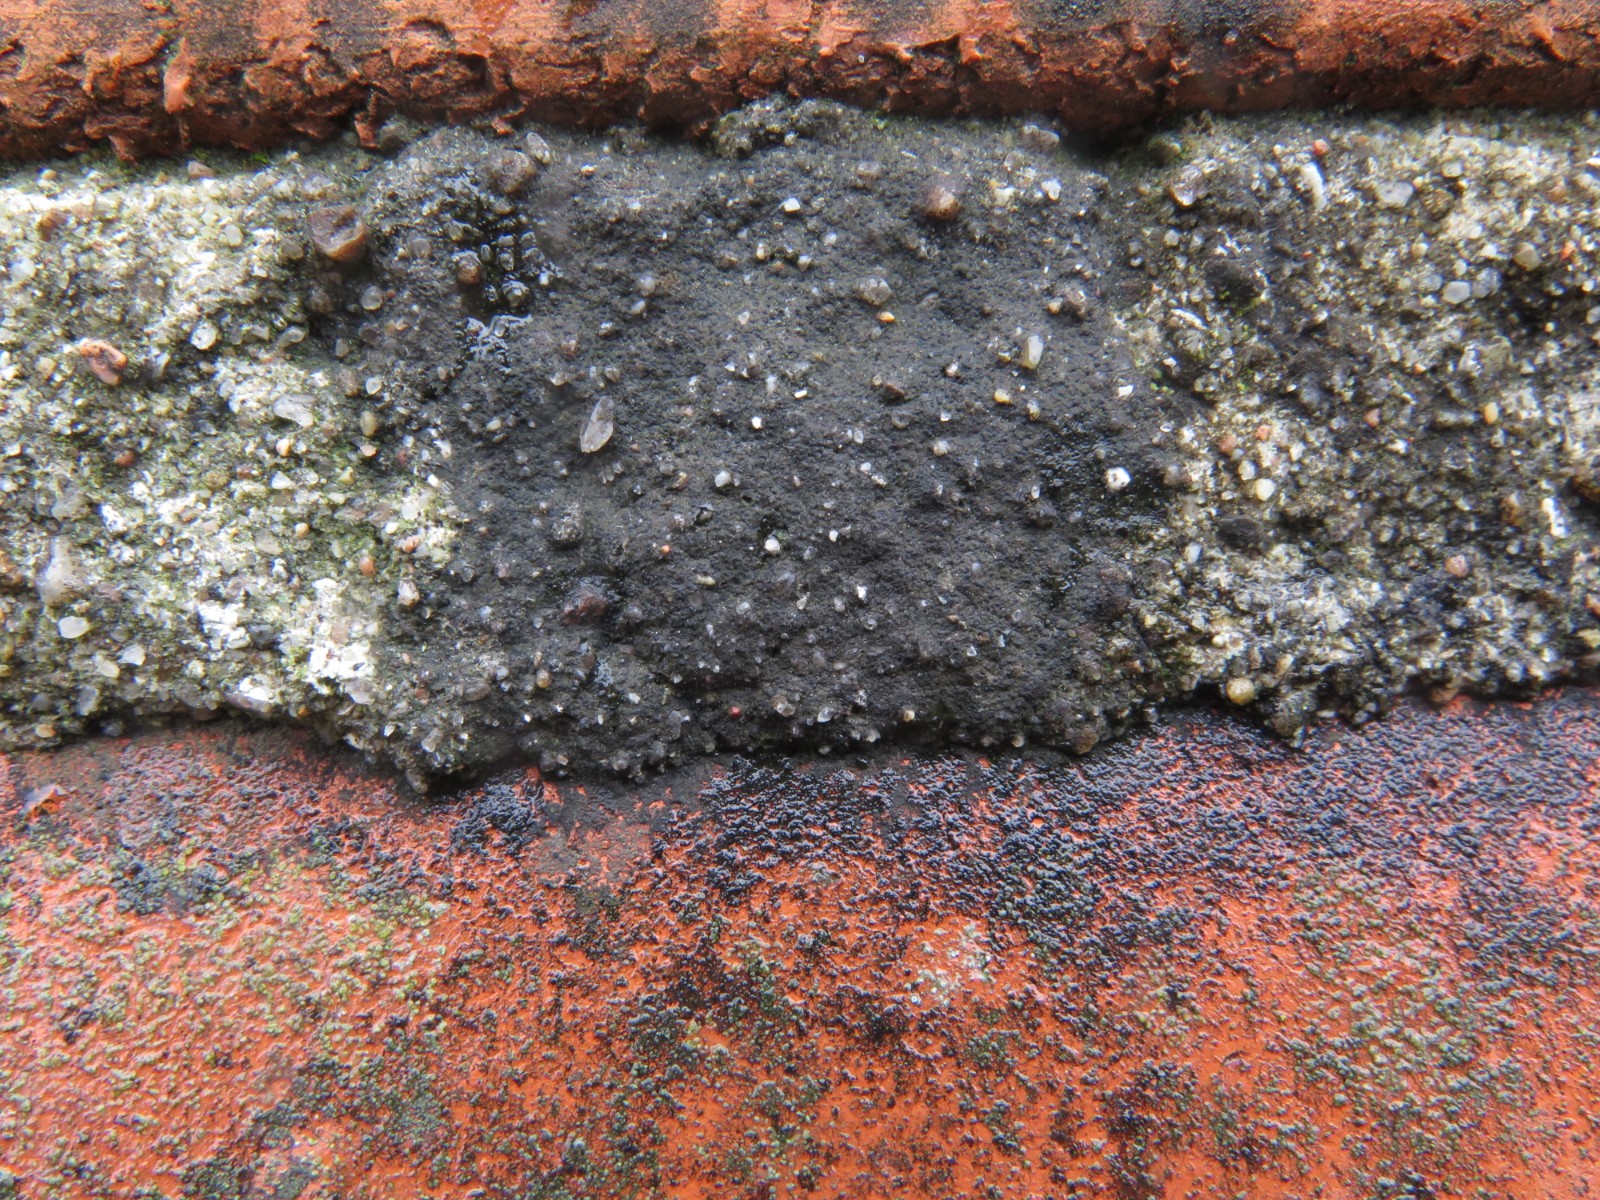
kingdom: Fungi
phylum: Ascomycota
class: Eurotiomycetes
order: Verrucariales
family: Verrucariaceae
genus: Verrucaria
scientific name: Verrucaria nigrescens
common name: sortbrun vortelav
